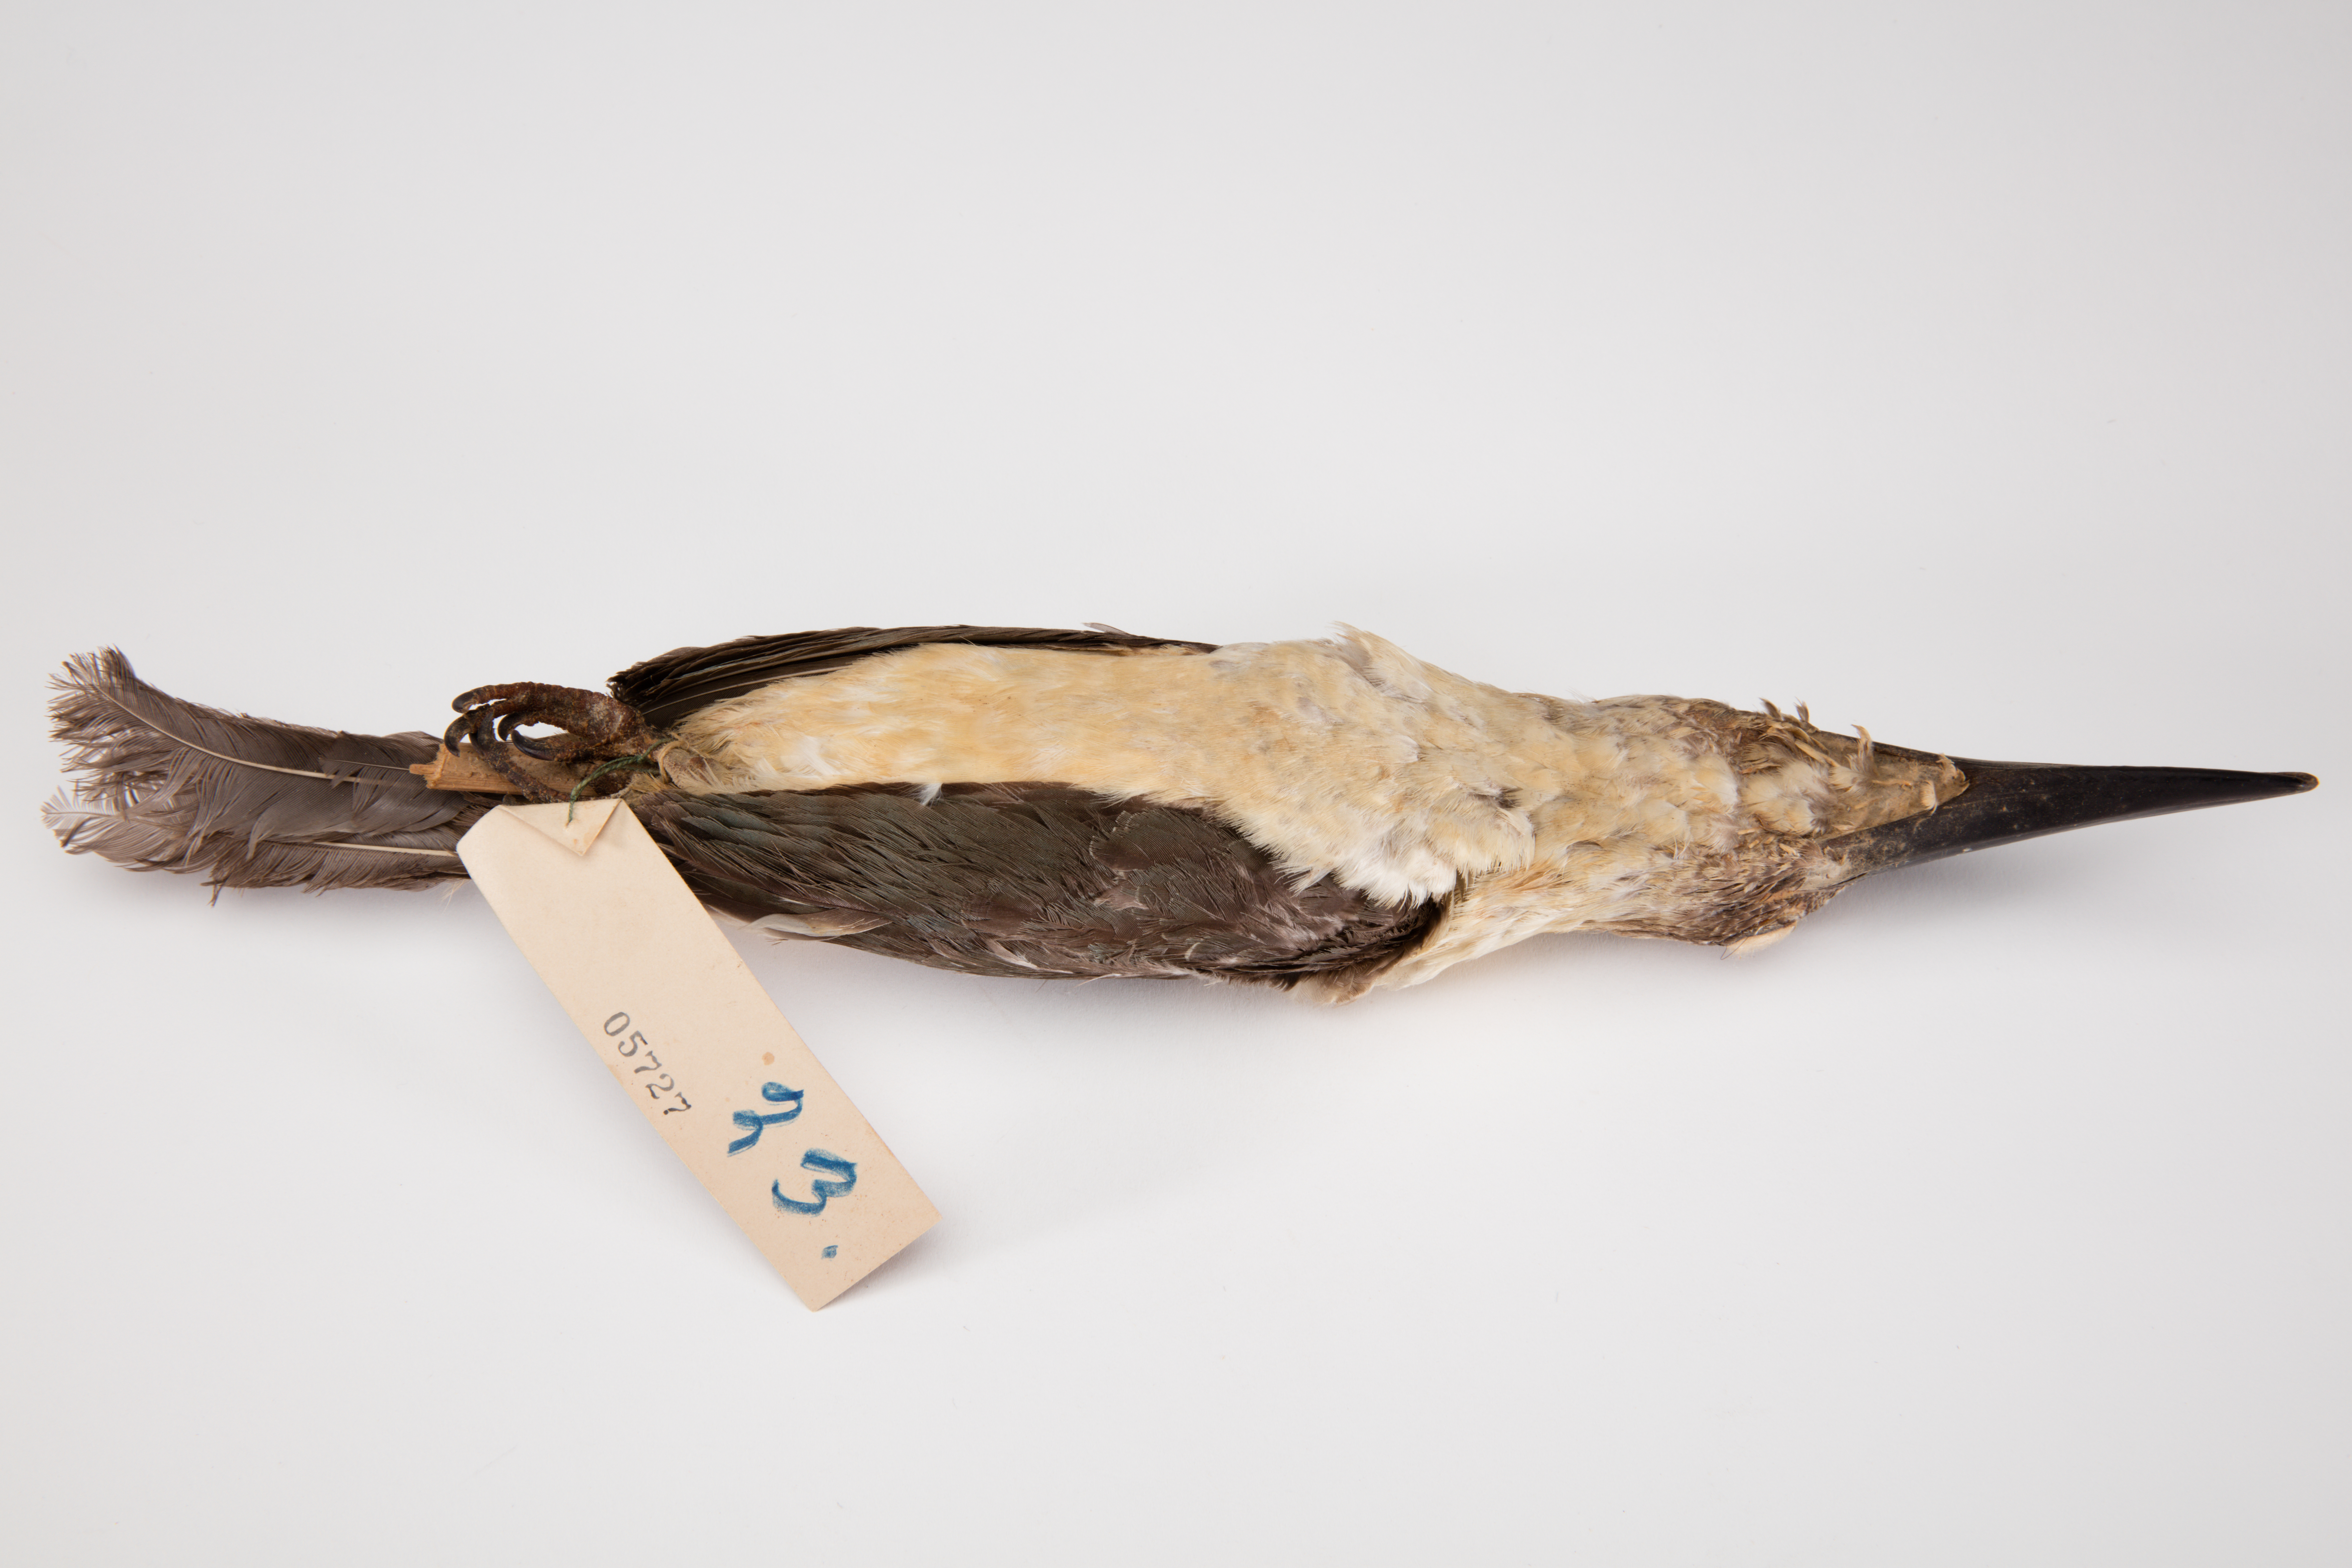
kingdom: Animalia
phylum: Chordata
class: Aves
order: Coraciiformes
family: Alcedinidae
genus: Halcyon
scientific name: Halcyon
